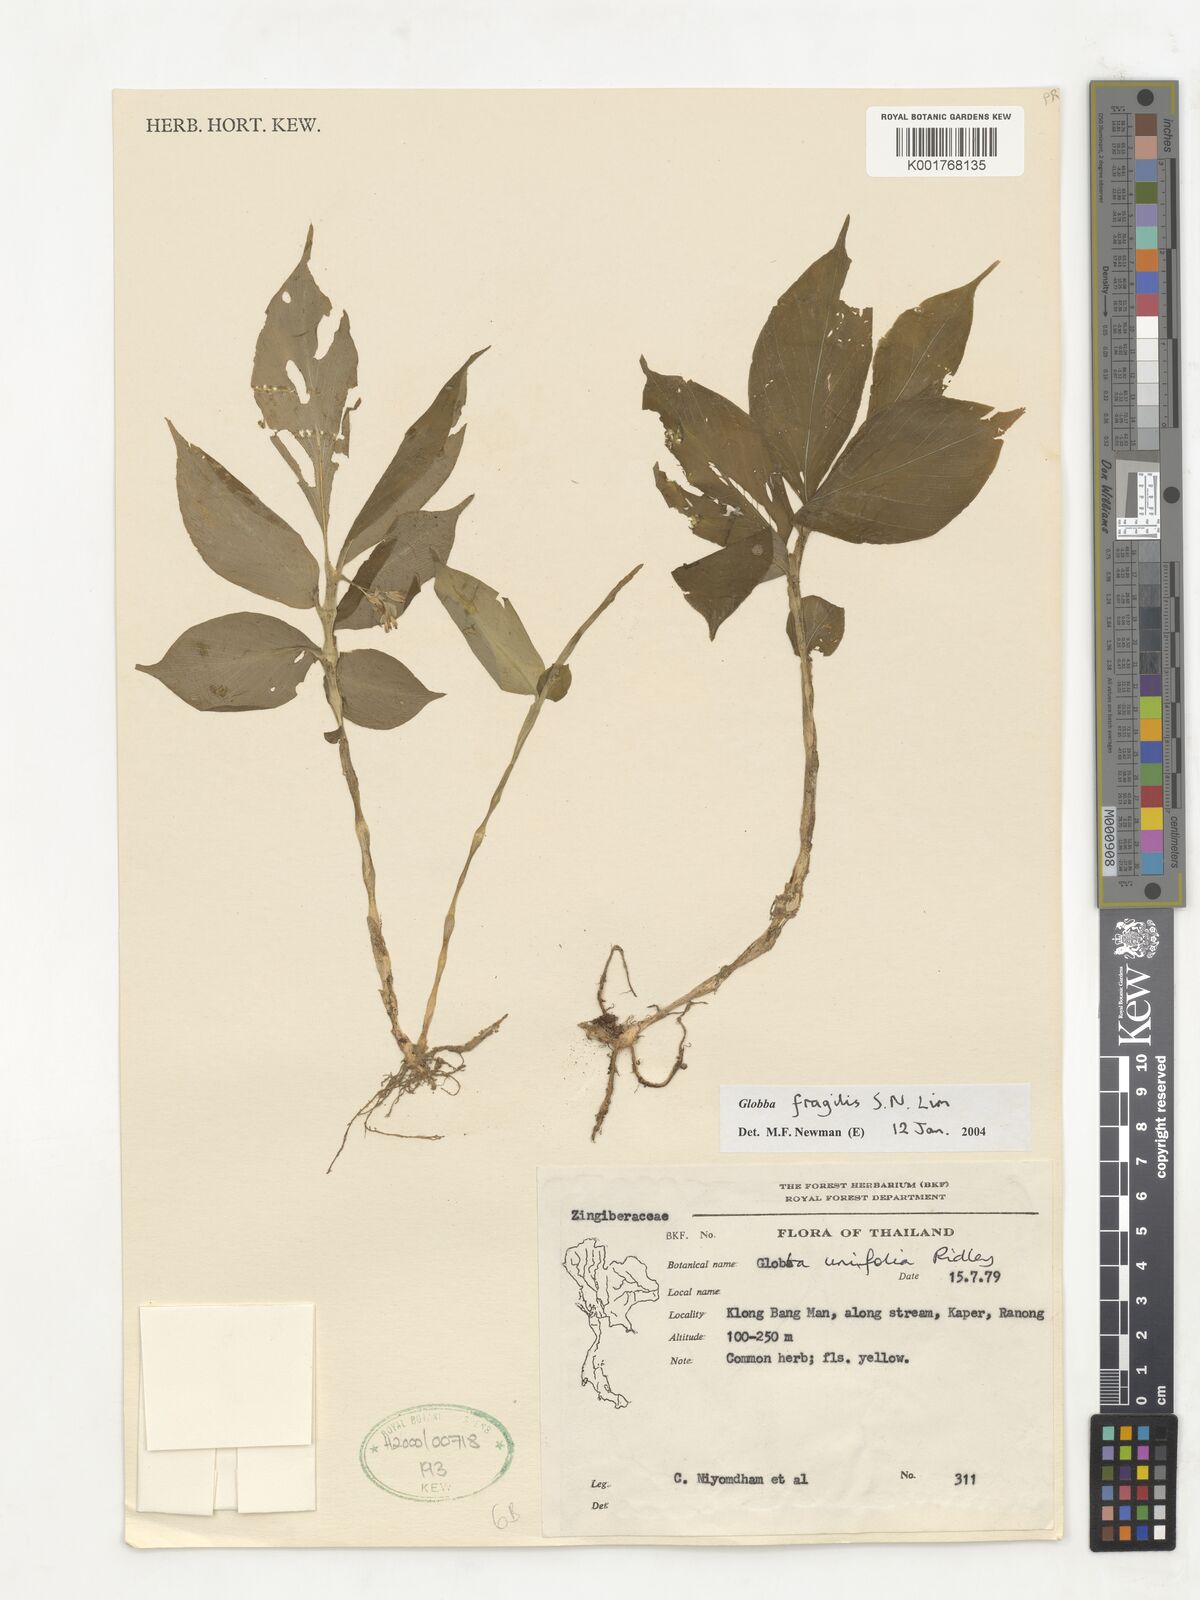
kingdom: Plantae
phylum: Tracheophyta
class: Liliopsida
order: Zingiberales
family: Zingiberaceae
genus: Globba
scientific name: Globba fragilis
